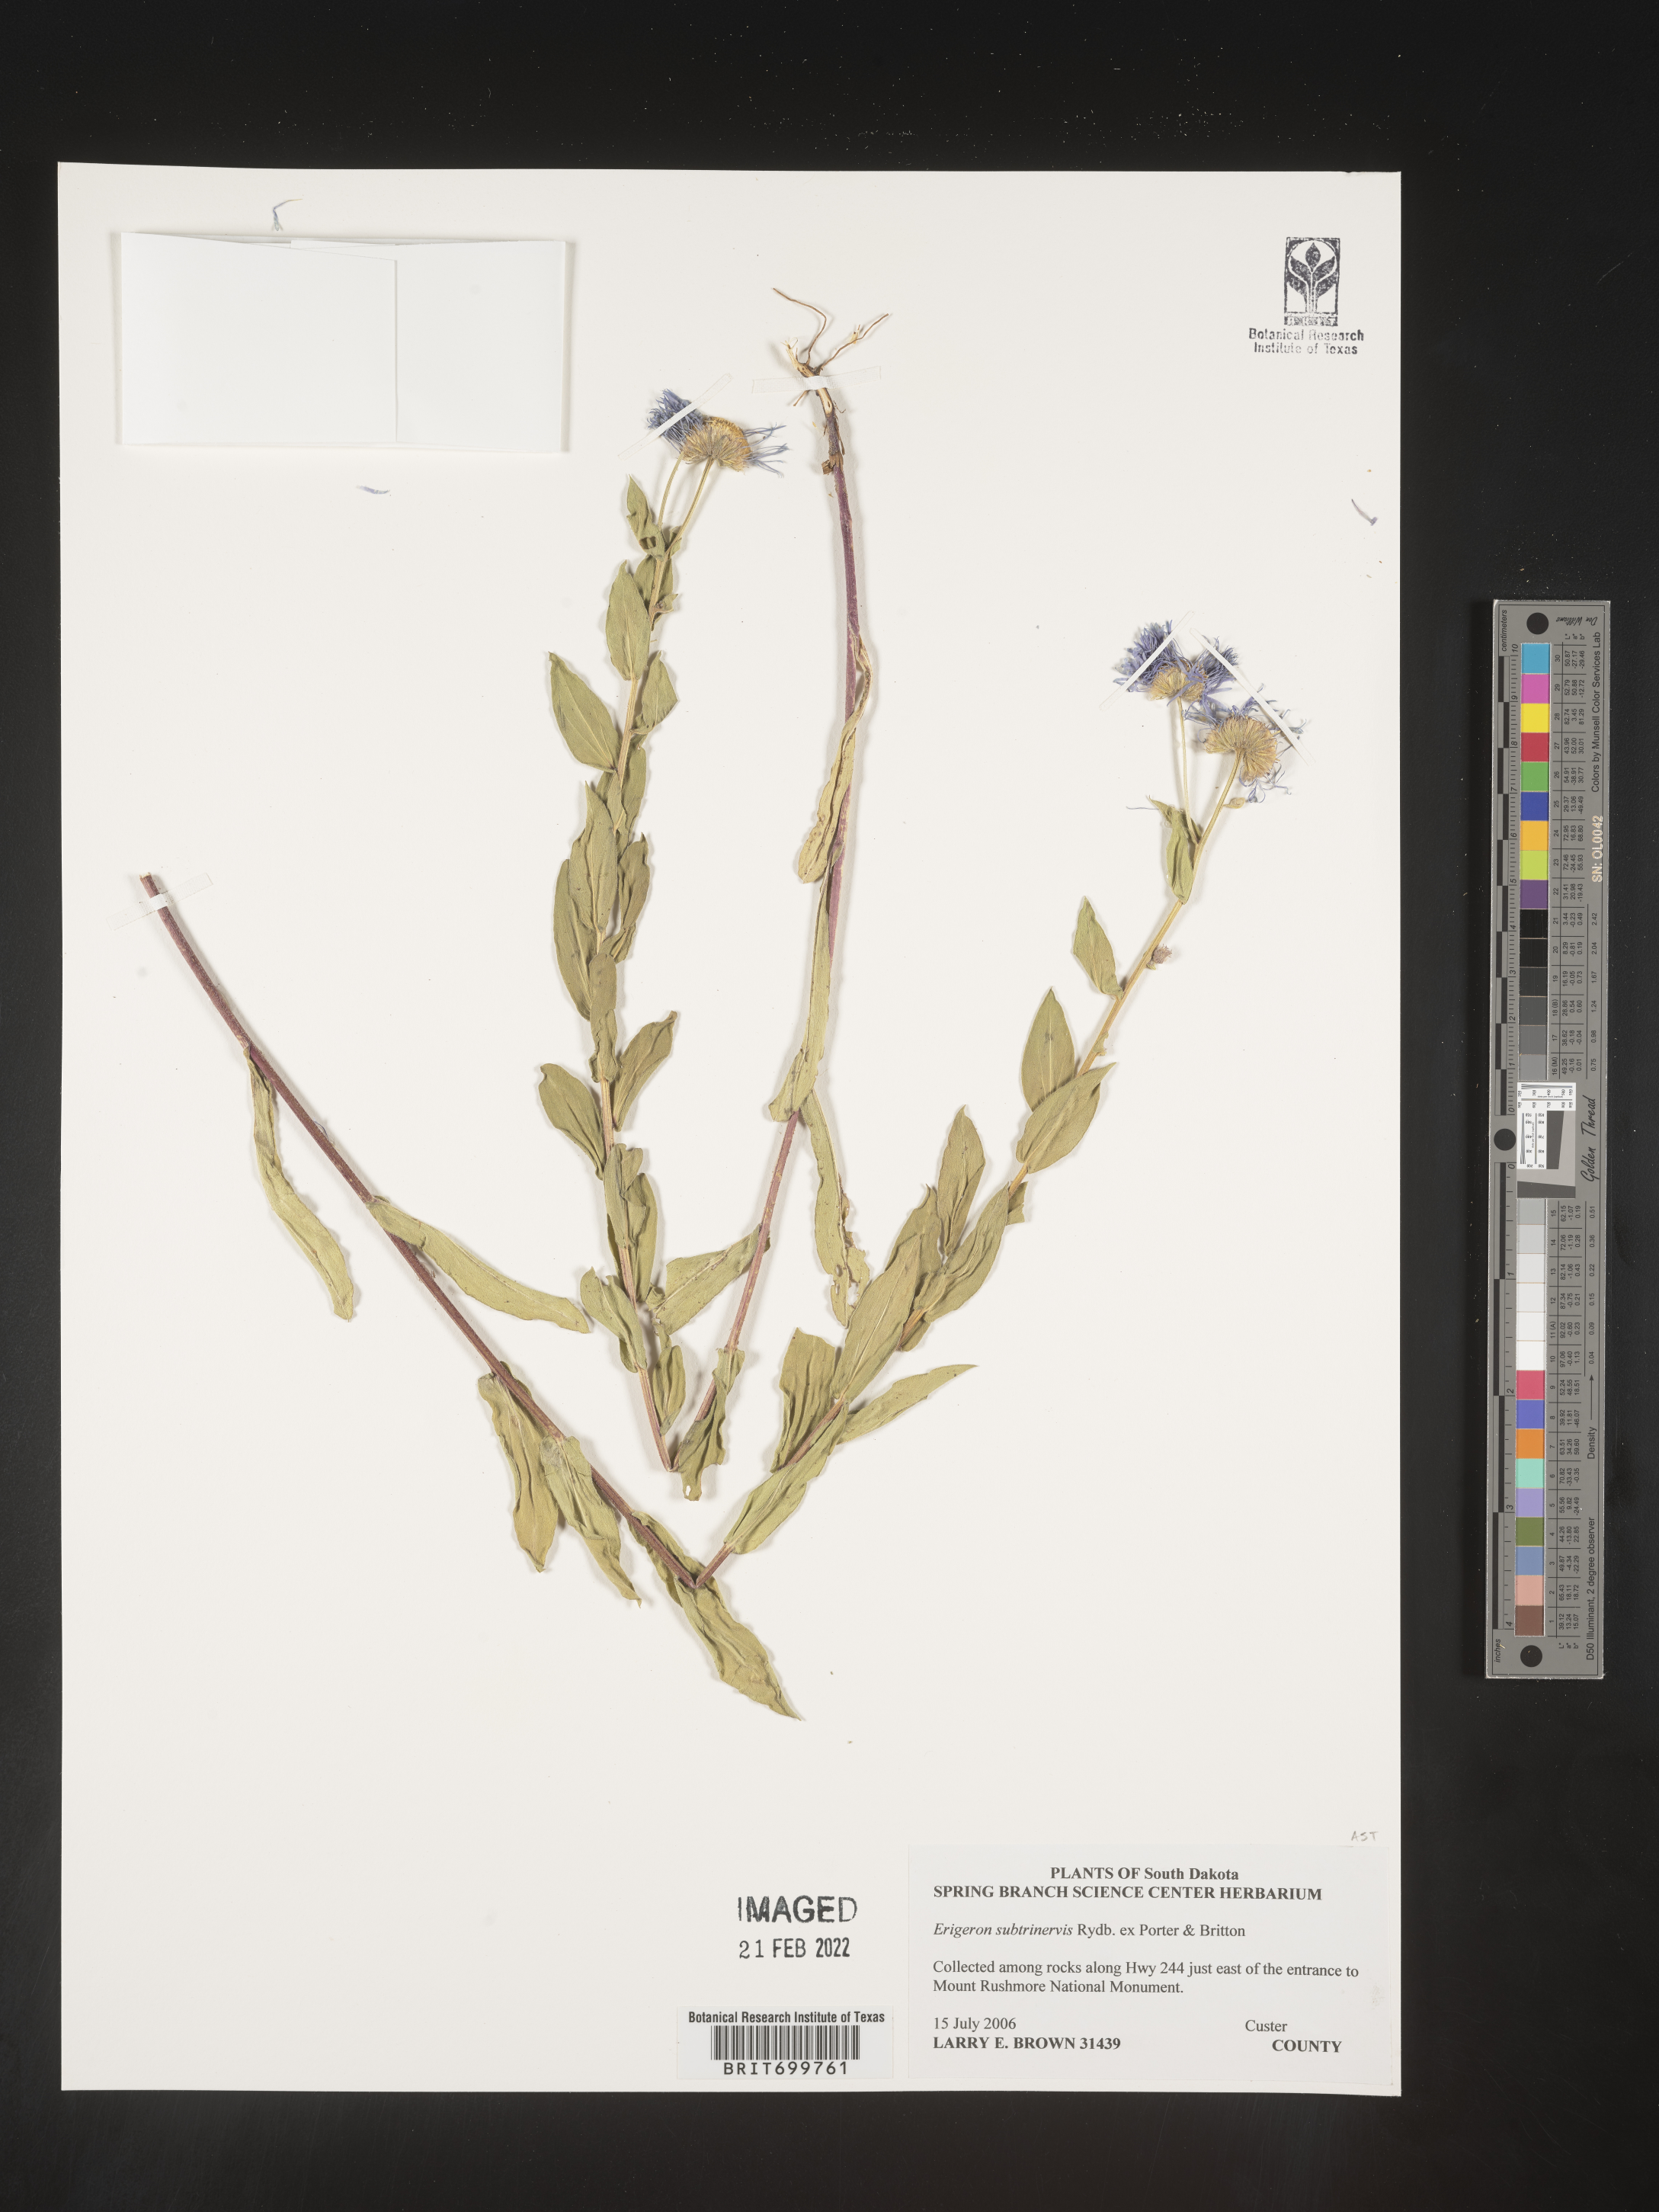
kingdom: Plantae
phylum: Tracheophyta
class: Magnoliopsida
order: Asterales
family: Asteraceae
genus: Erigeron
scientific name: Erigeron subtrinervis
